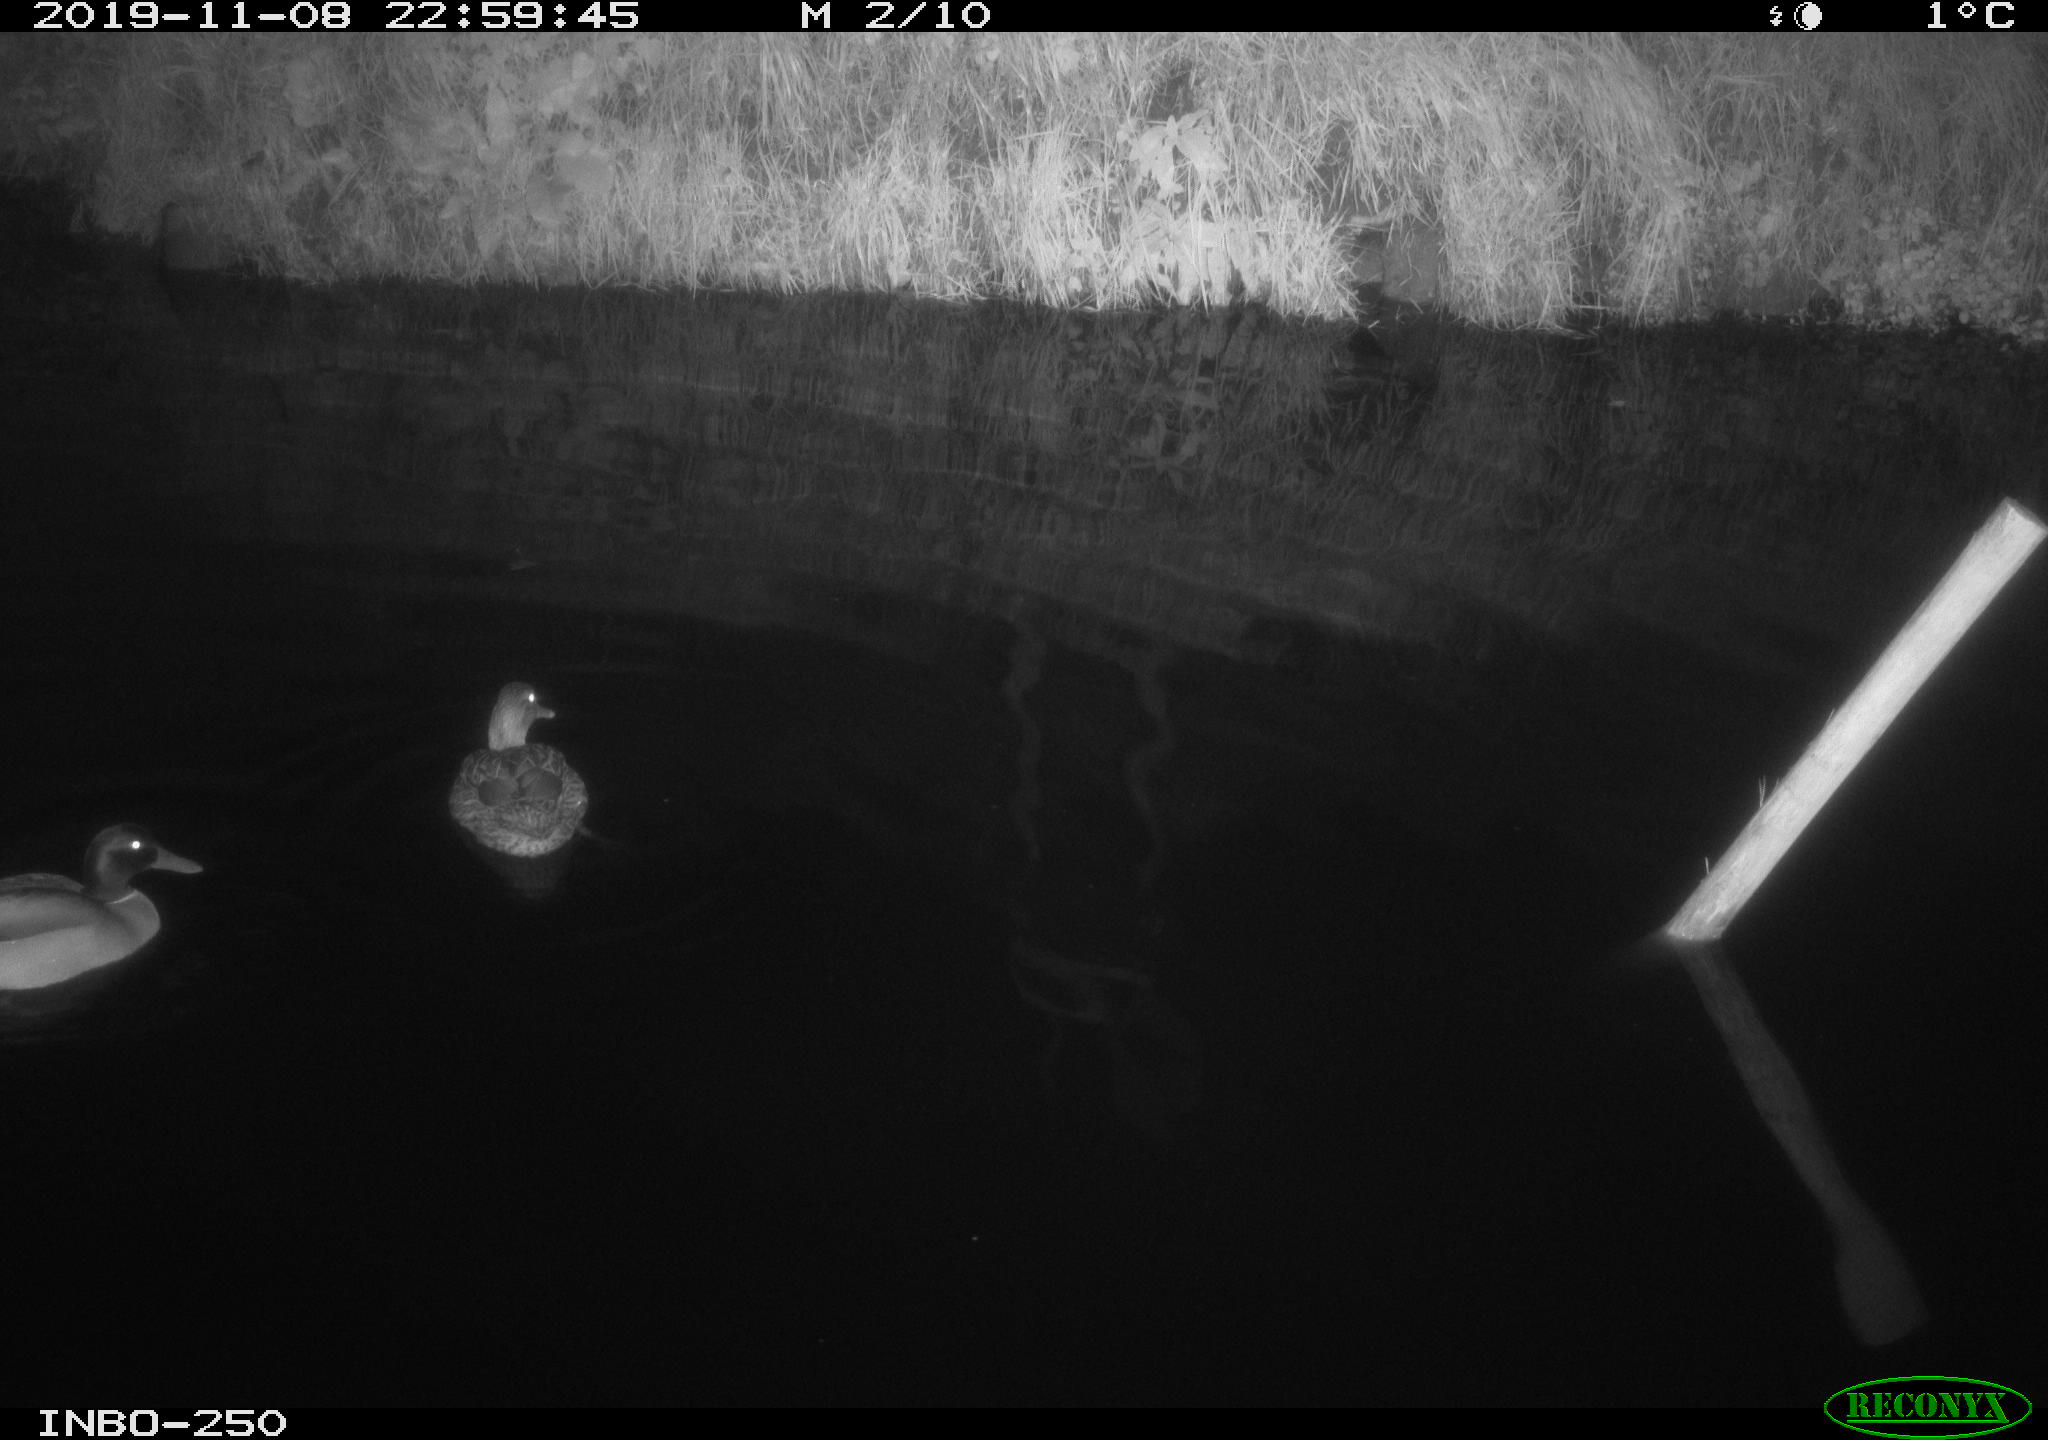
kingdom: Animalia
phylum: Chordata
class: Aves
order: Anseriformes
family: Anatidae
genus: Anas
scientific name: Anas platyrhynchos
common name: Mallard
